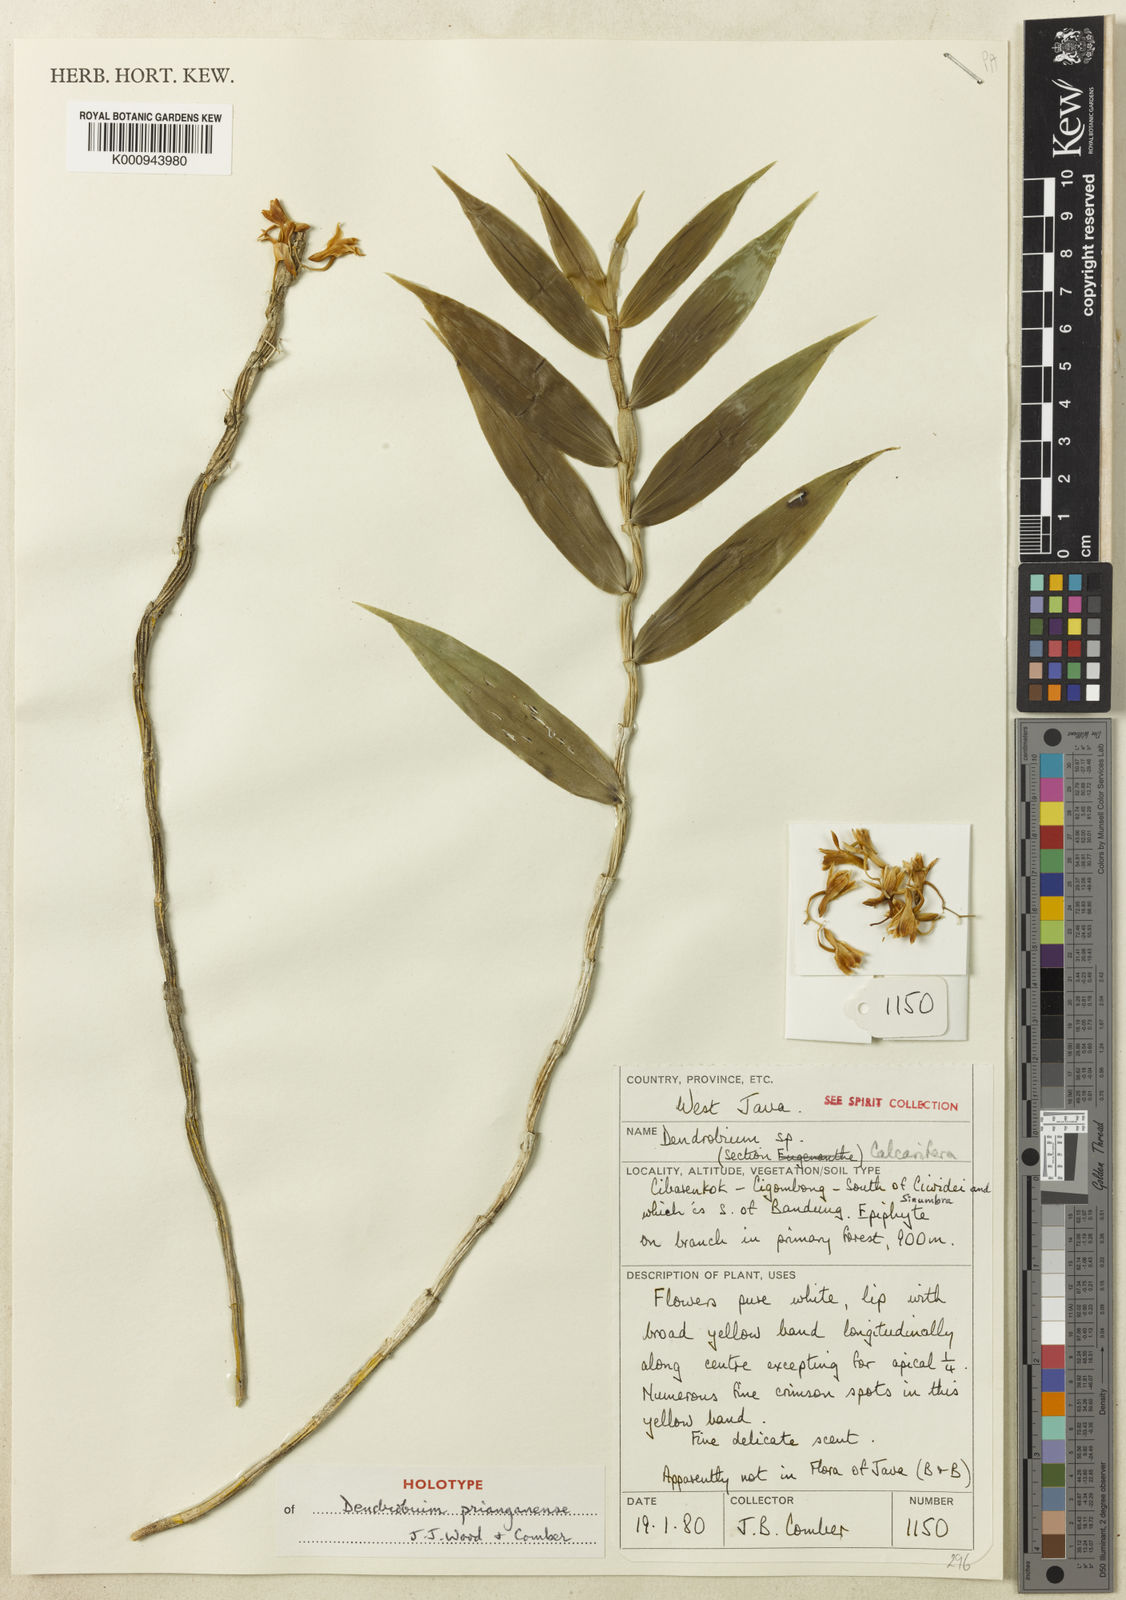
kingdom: Plantae
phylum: Tracheophyta
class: Liliopsida
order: Asparagales
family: Orchidaceae
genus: Dendrobium
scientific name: Dendrobium prianganense
